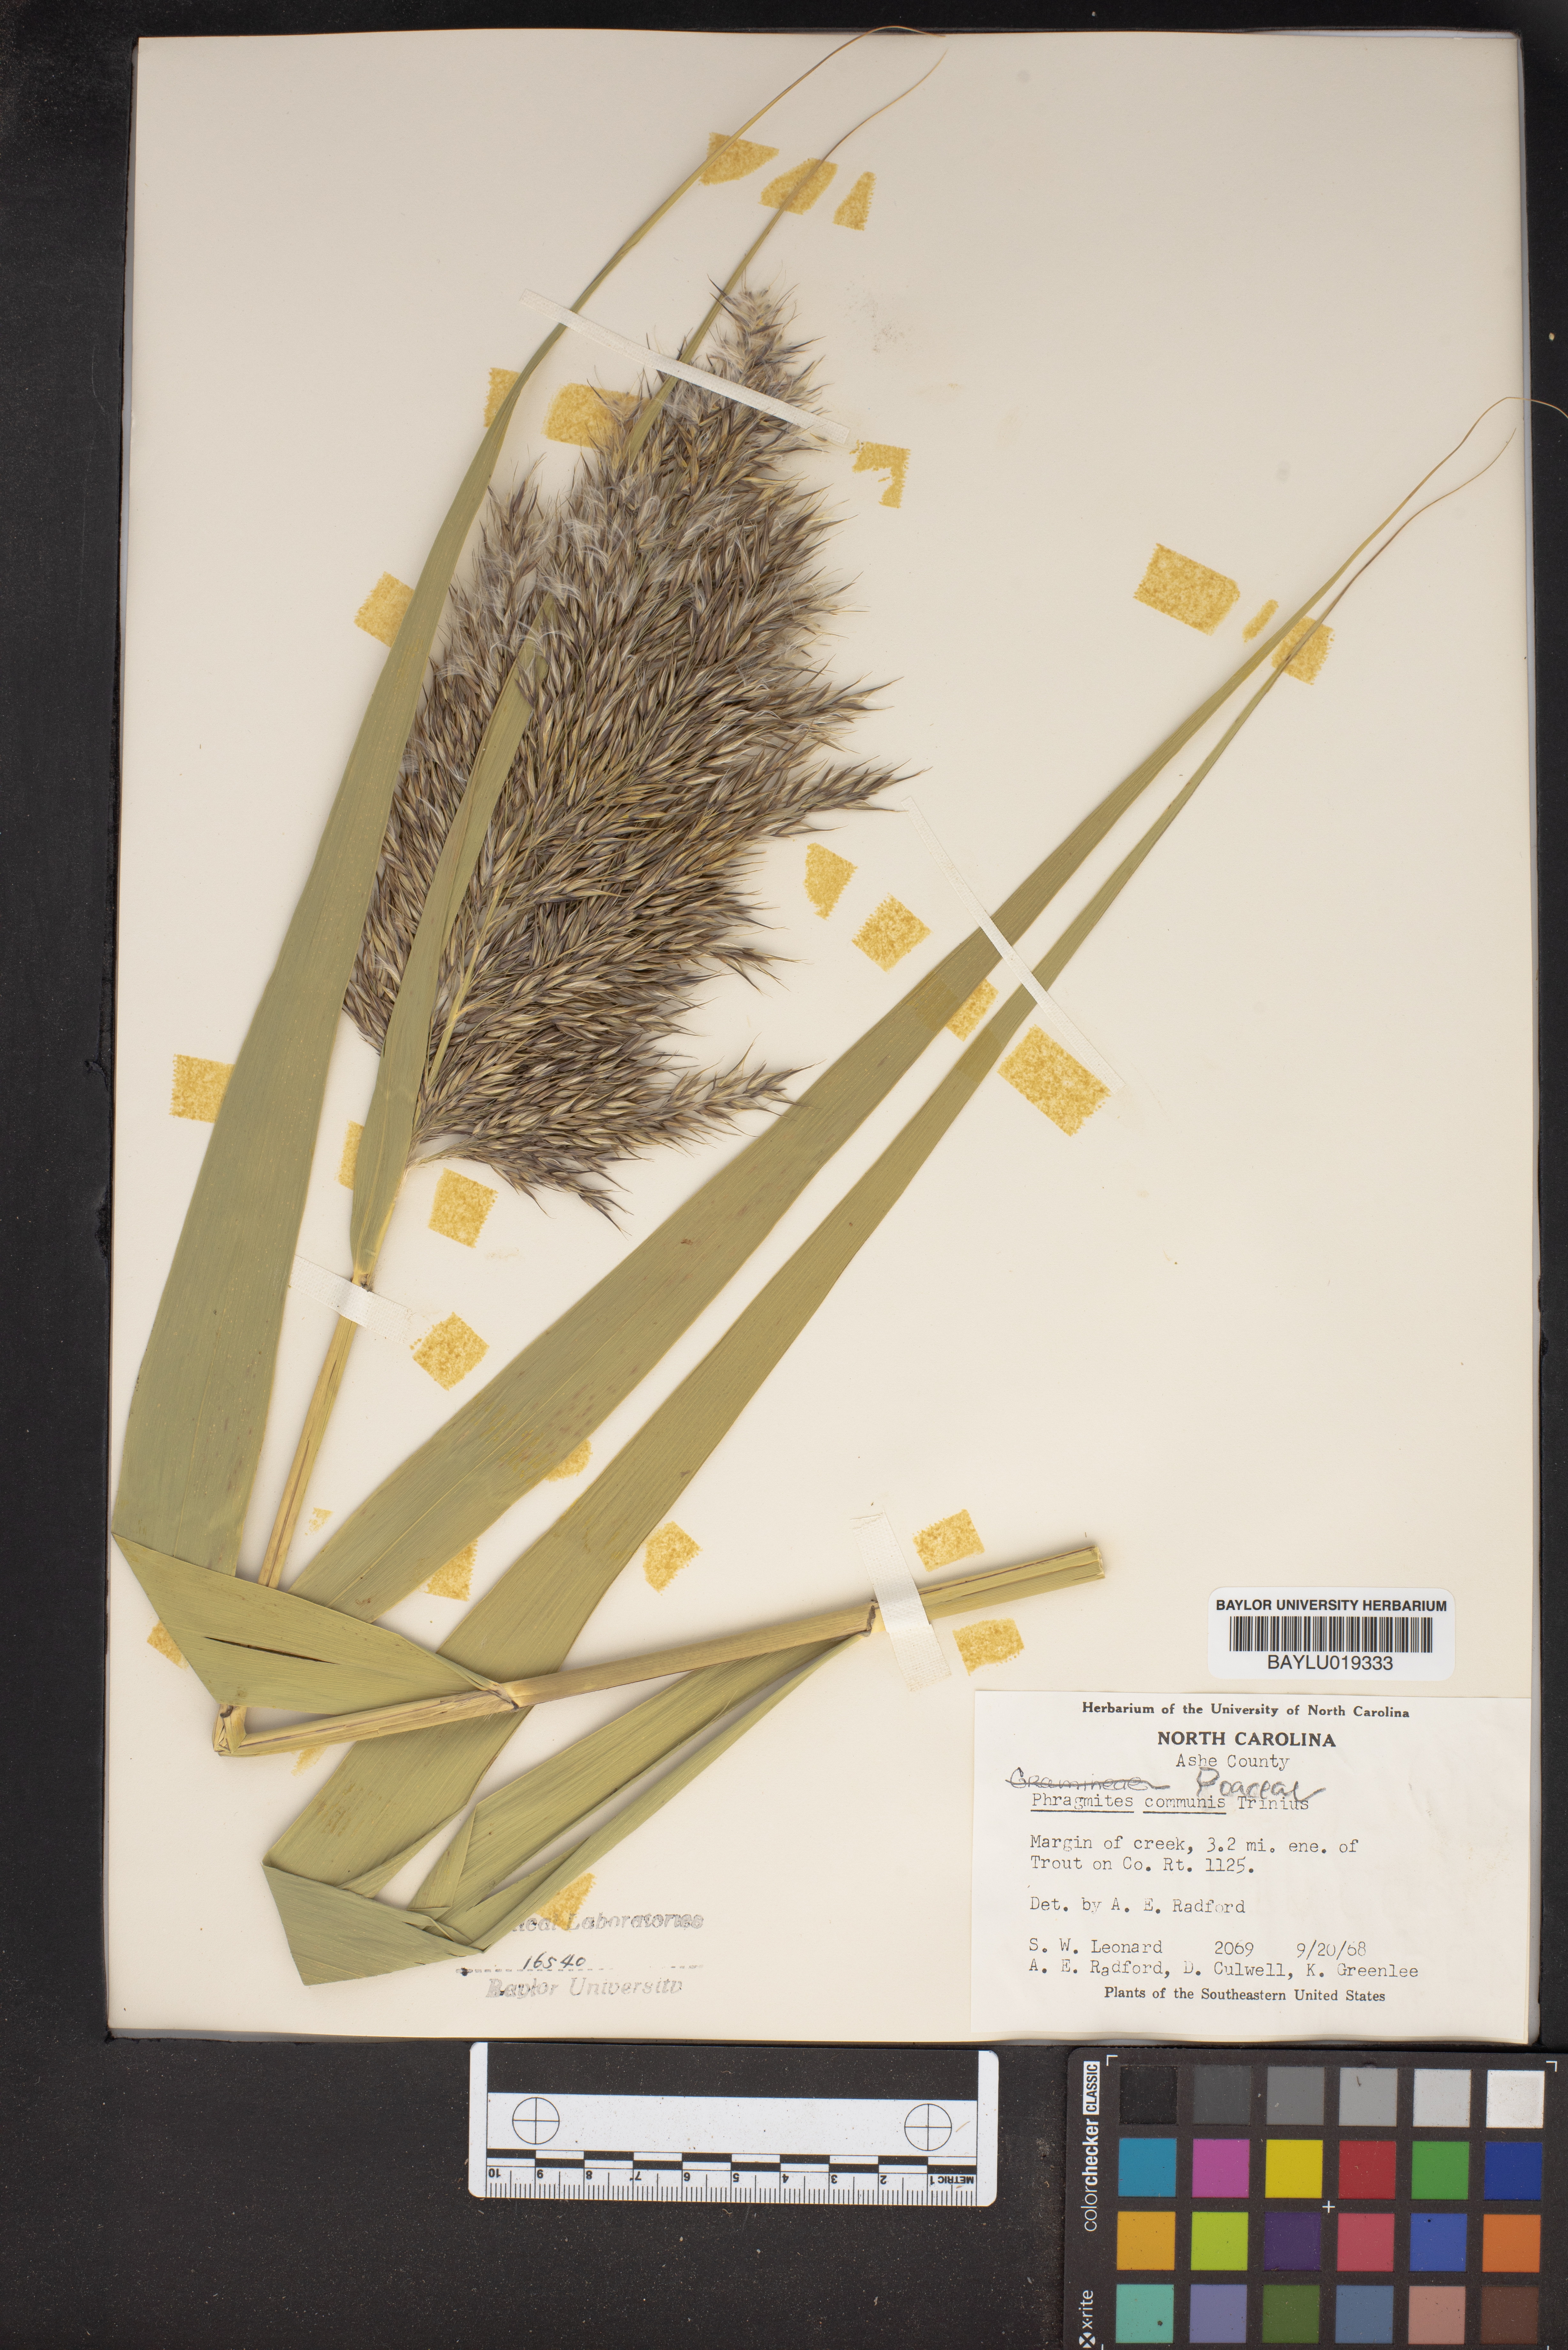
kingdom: Plantae
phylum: Tracheophyta
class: Liliopsida
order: Poales
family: Poaceae
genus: Phragmites
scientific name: Phragmites australis
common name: Common reed
